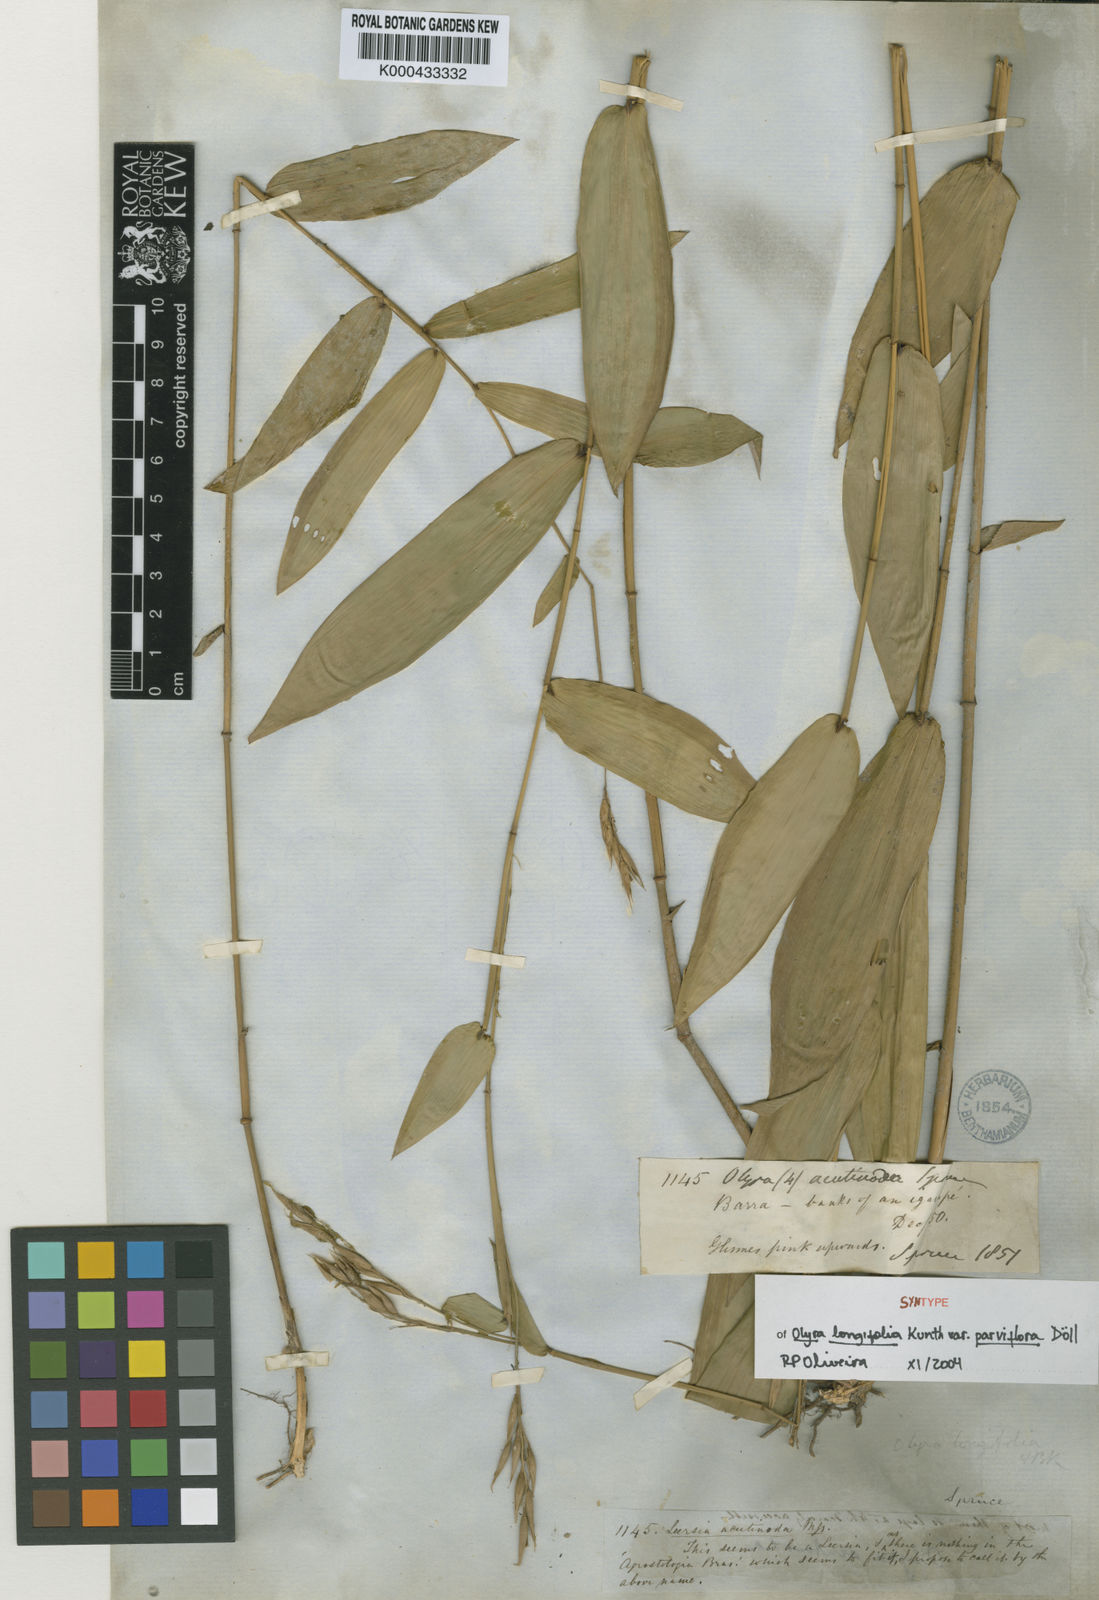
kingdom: Plantae
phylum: Tracheophyta
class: Liliopsida
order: Poales
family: Poaceae
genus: Olyra
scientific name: Olyra
